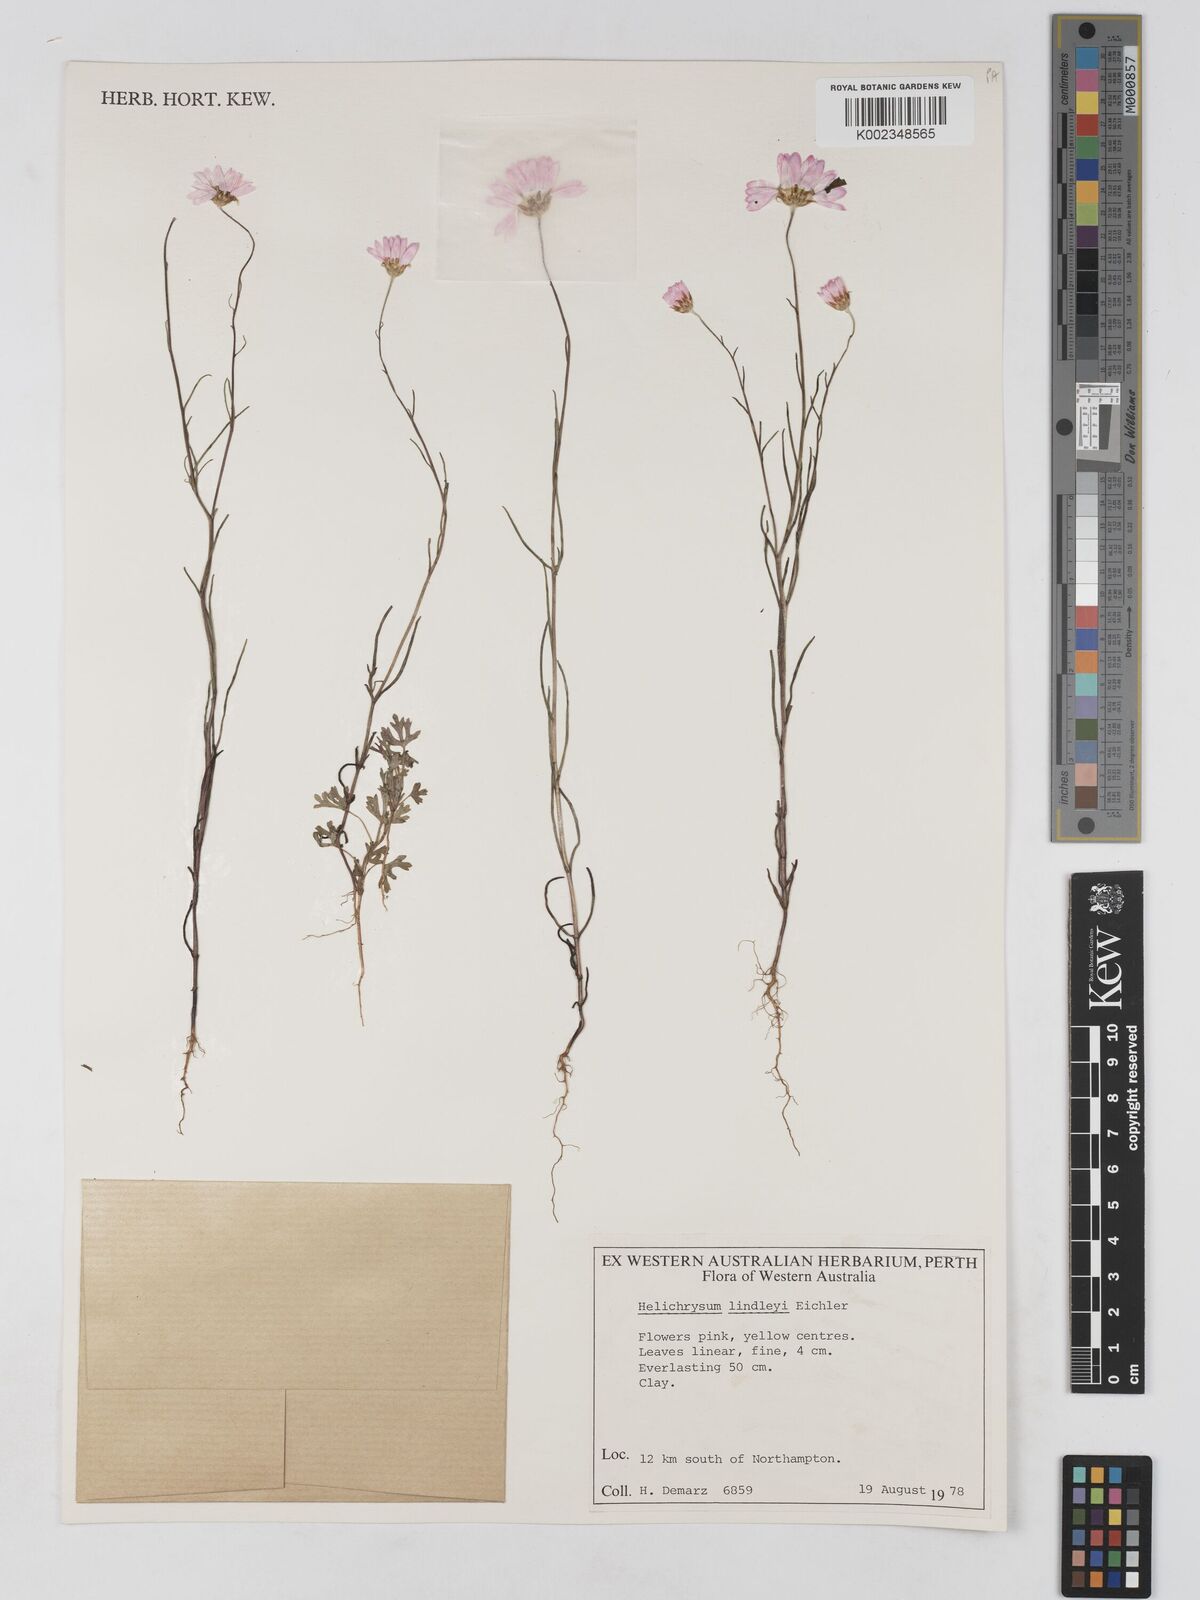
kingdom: Plantae
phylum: Tracheophyta
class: Magnoliopsida
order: Asterales
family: Asteraceae
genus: Lawrencella
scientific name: Lawrencella rosea
